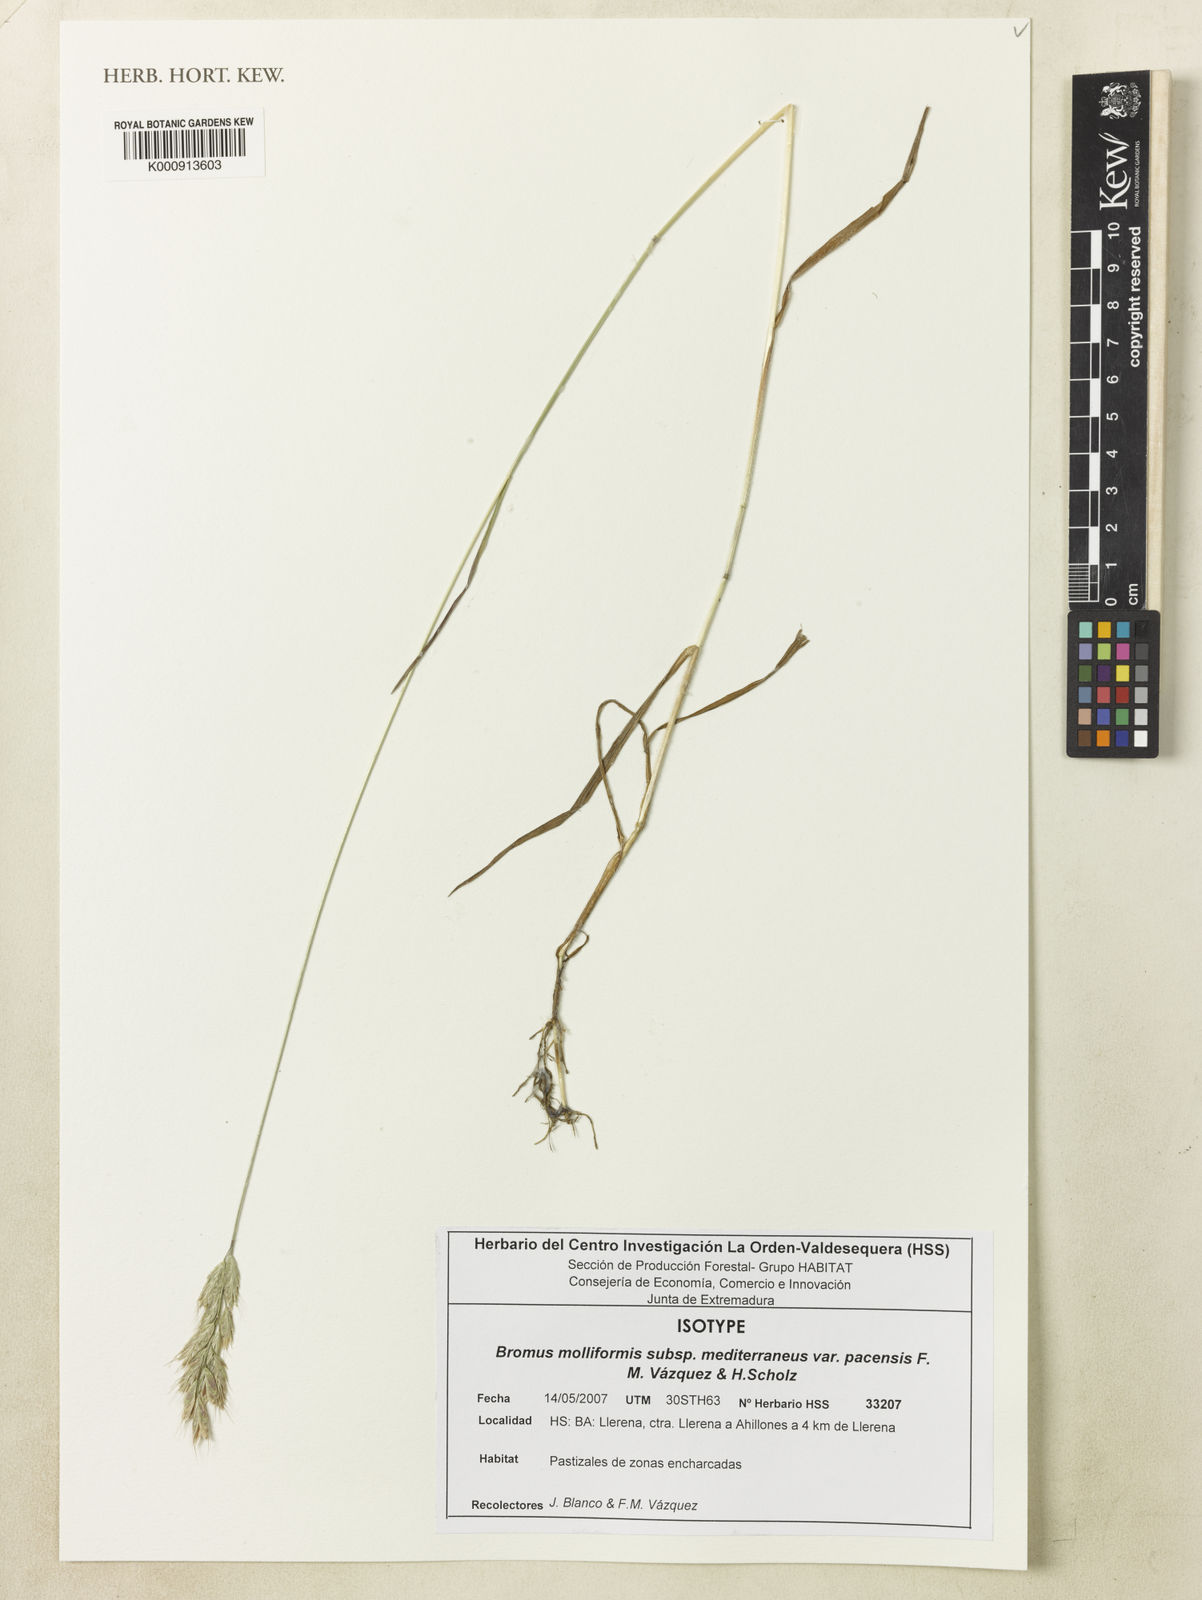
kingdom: Plantae
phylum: Tracheophyta
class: Liliopsida
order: Poales
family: Poaceae
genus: Bromus
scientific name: Bromus hordeaceus
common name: Soft brome
